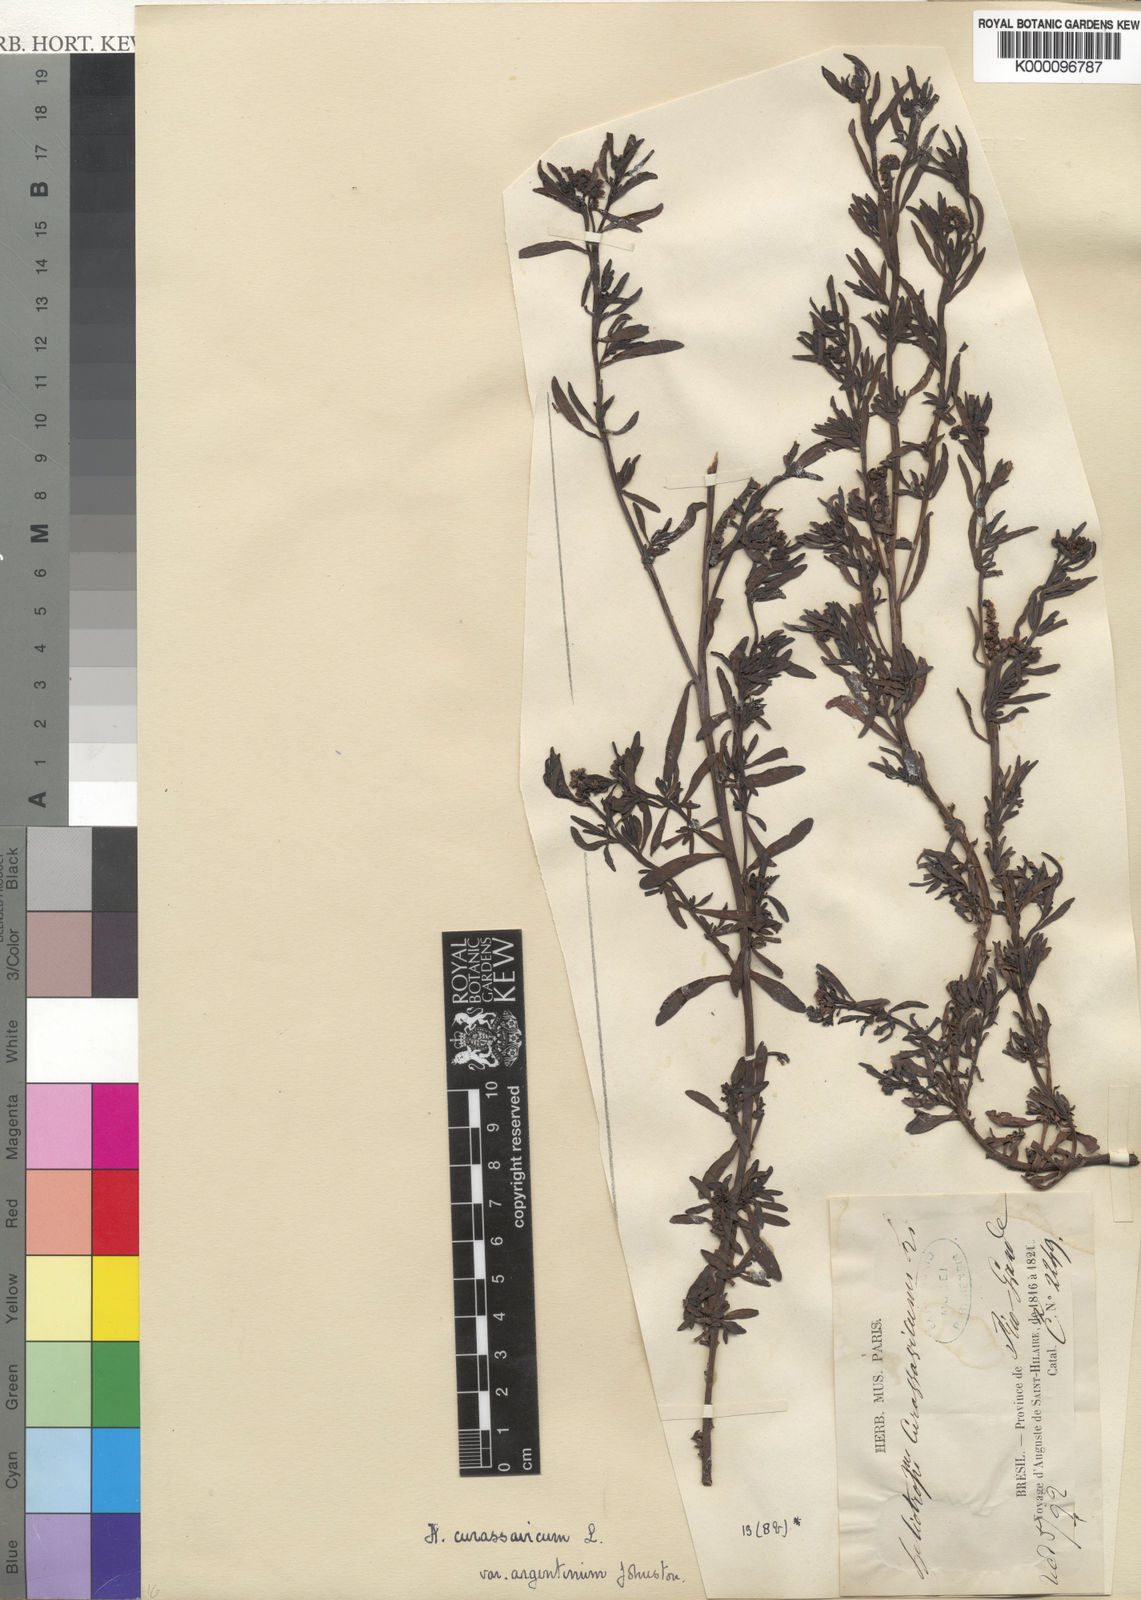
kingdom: Plantae
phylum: Tracheophyta
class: Magnoliopsida
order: Boraginales
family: Heliotropiaceae
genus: Heliotropium
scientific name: Heliotropium curassavicum
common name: Seaside heliotrope
